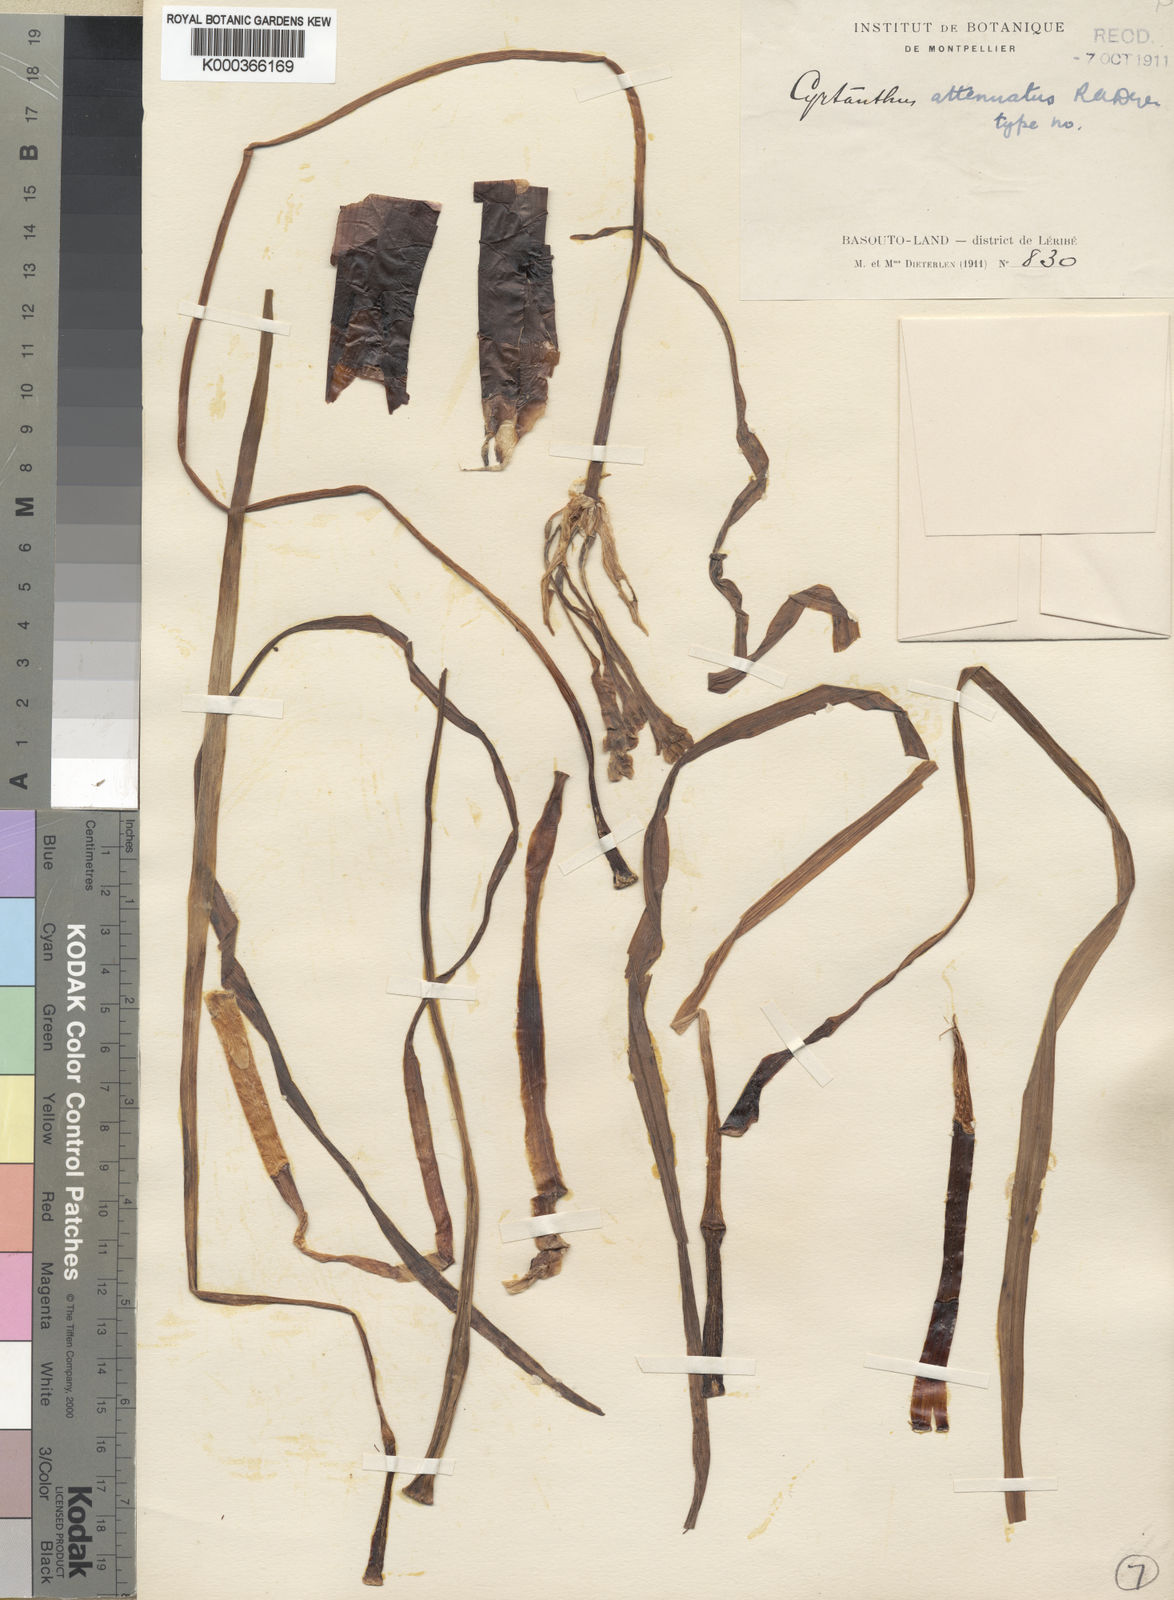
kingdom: Plantae
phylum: Tracheophyta
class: Liliopsida
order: Asparagales
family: Amaryllidaceae
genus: Cyrtanthus
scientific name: Cyrtanthus attenuatus
